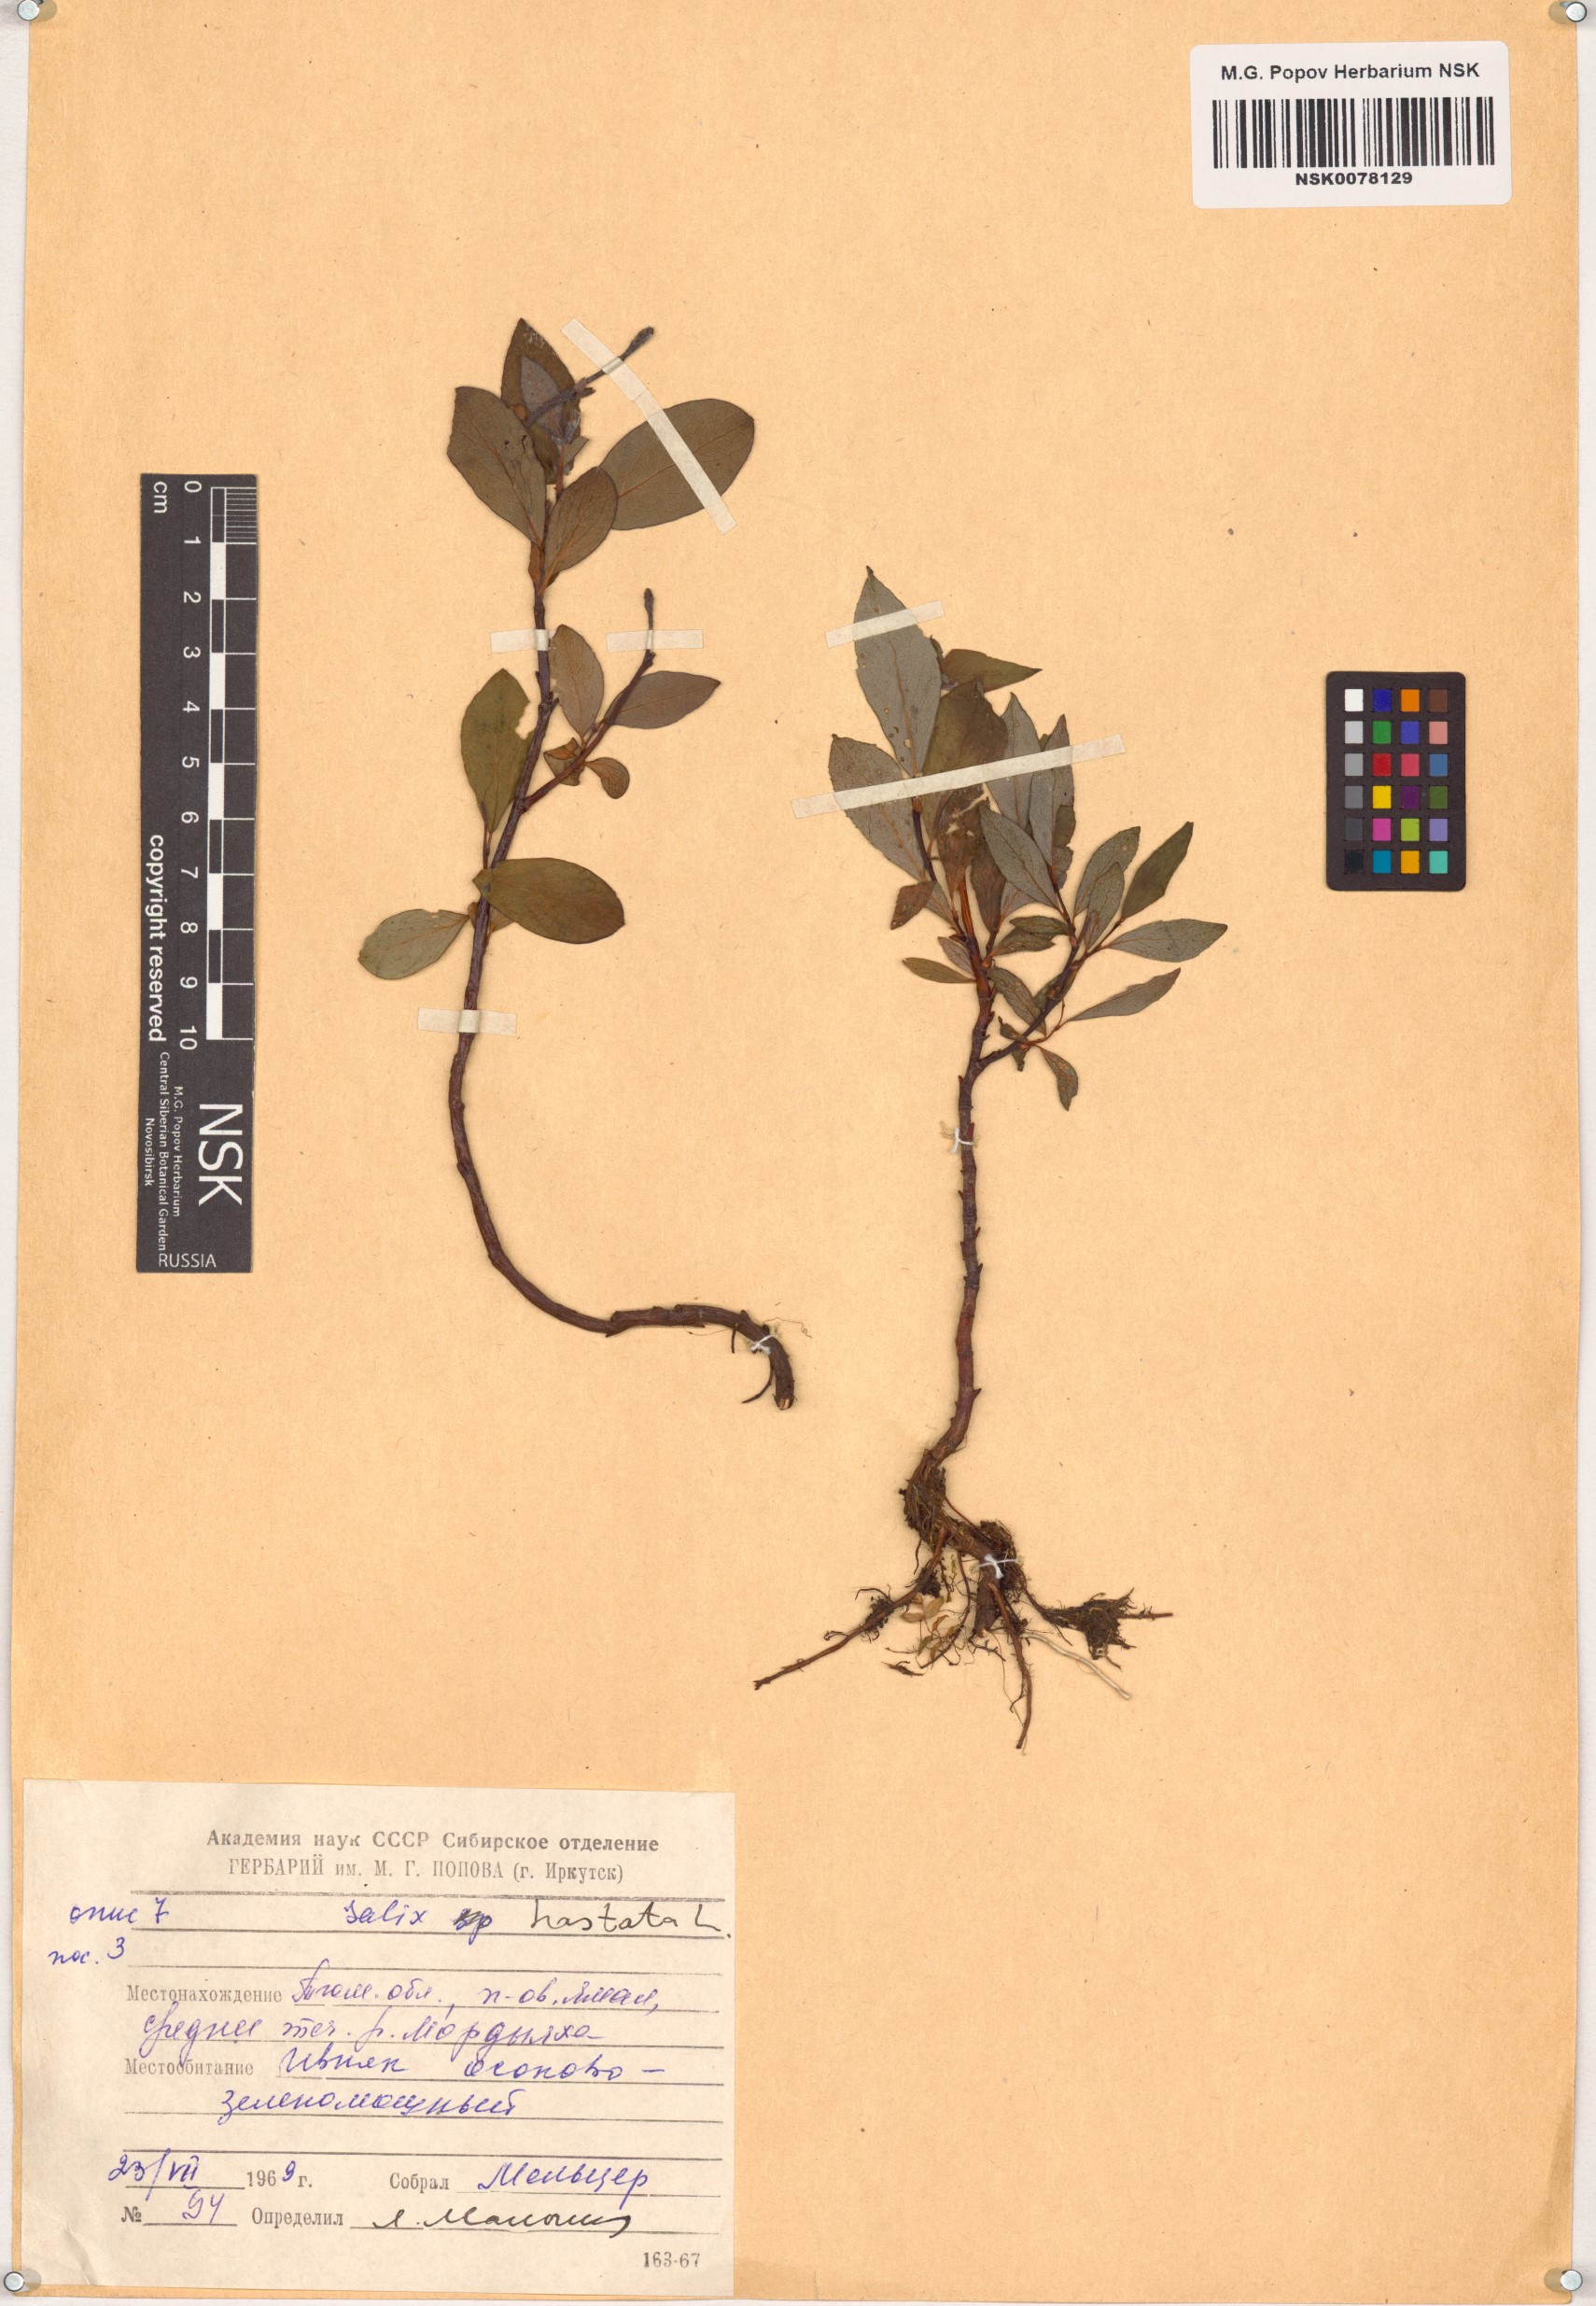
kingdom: Plantae
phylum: Tracheophyta
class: Magnoliopsida
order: Malpighiales
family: Salicaceae
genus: Salix
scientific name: Salix hastata
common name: Halberd willow
